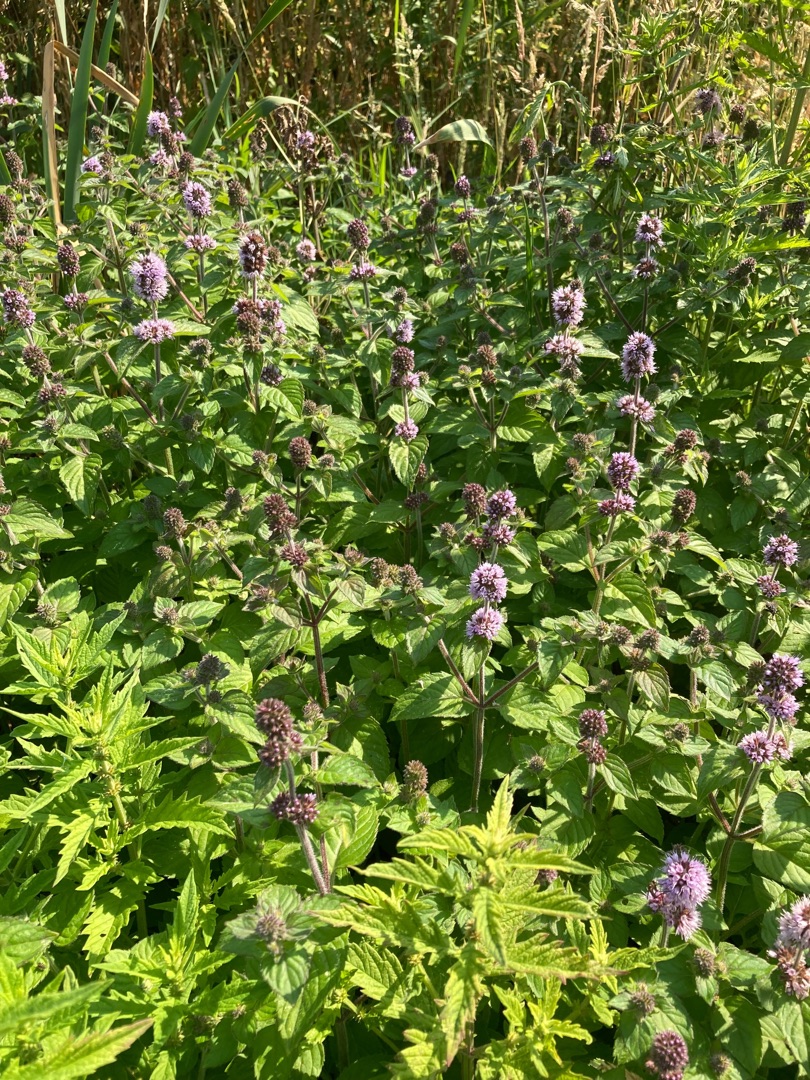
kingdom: Plantae
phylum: Tracheophyta
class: Magnoliopsida
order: Lamiales
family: Lamiaceae
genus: Mentha
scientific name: Mentha aquatica
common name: Vand-mynte
